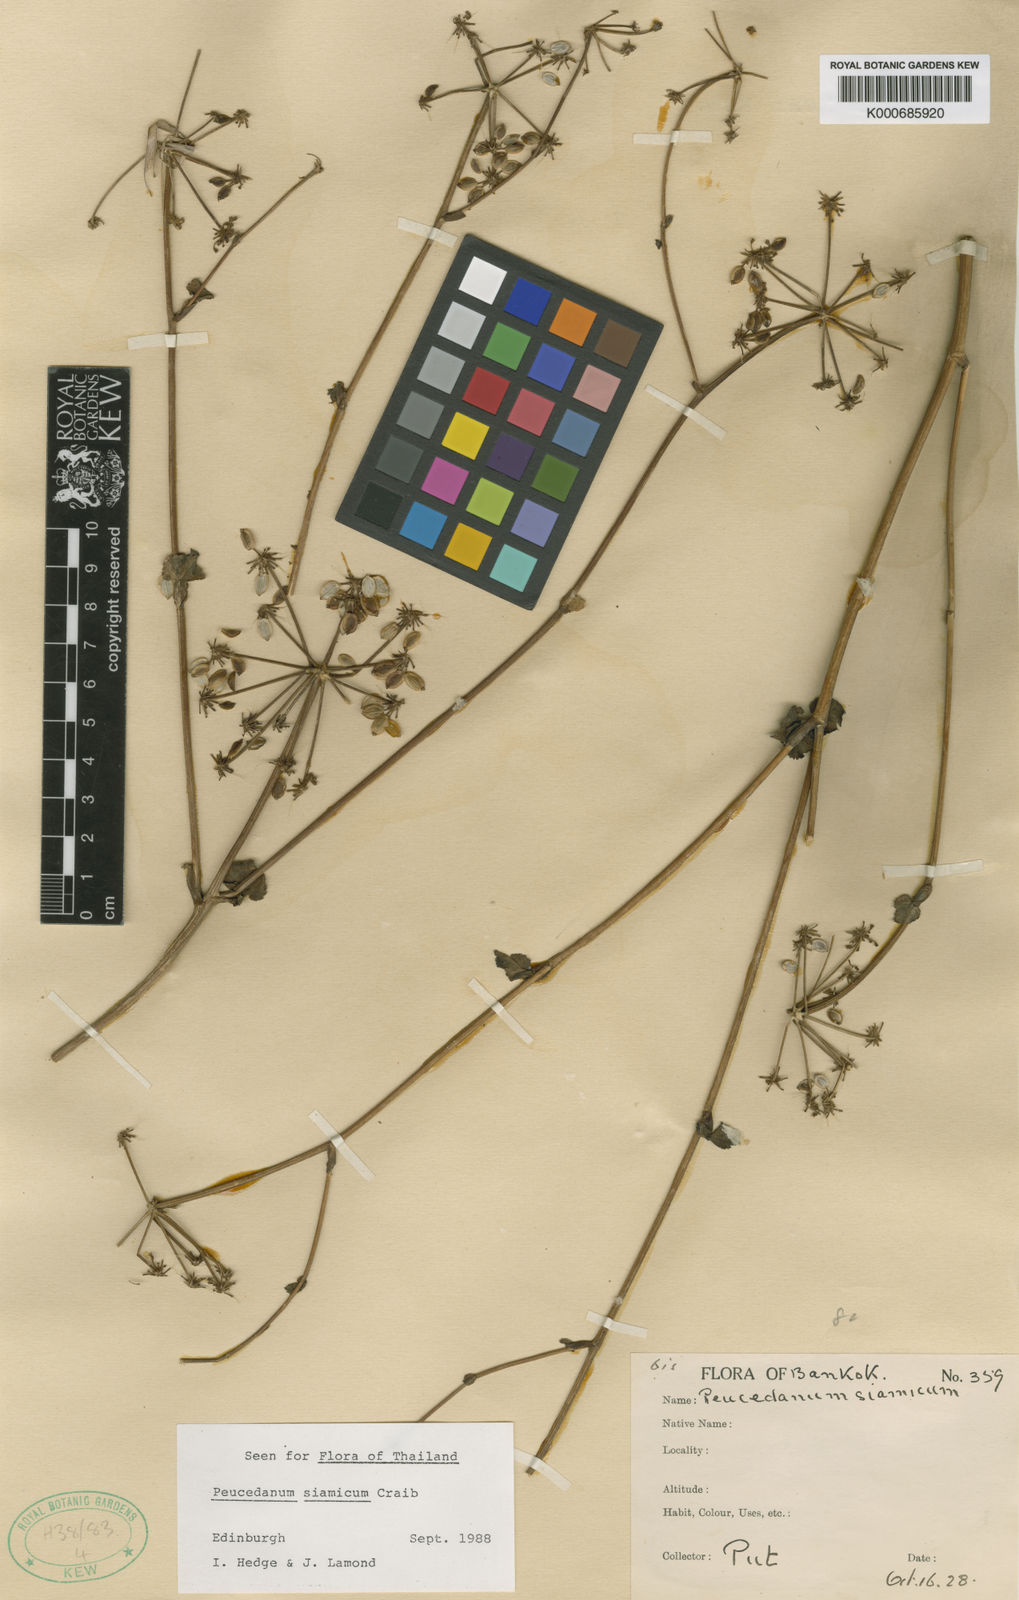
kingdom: Plantae
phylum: Tracheophyta
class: Magnoliopsida
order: Apiales
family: Apiaceae
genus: Peucedanum
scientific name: Peucedanum siamicum
